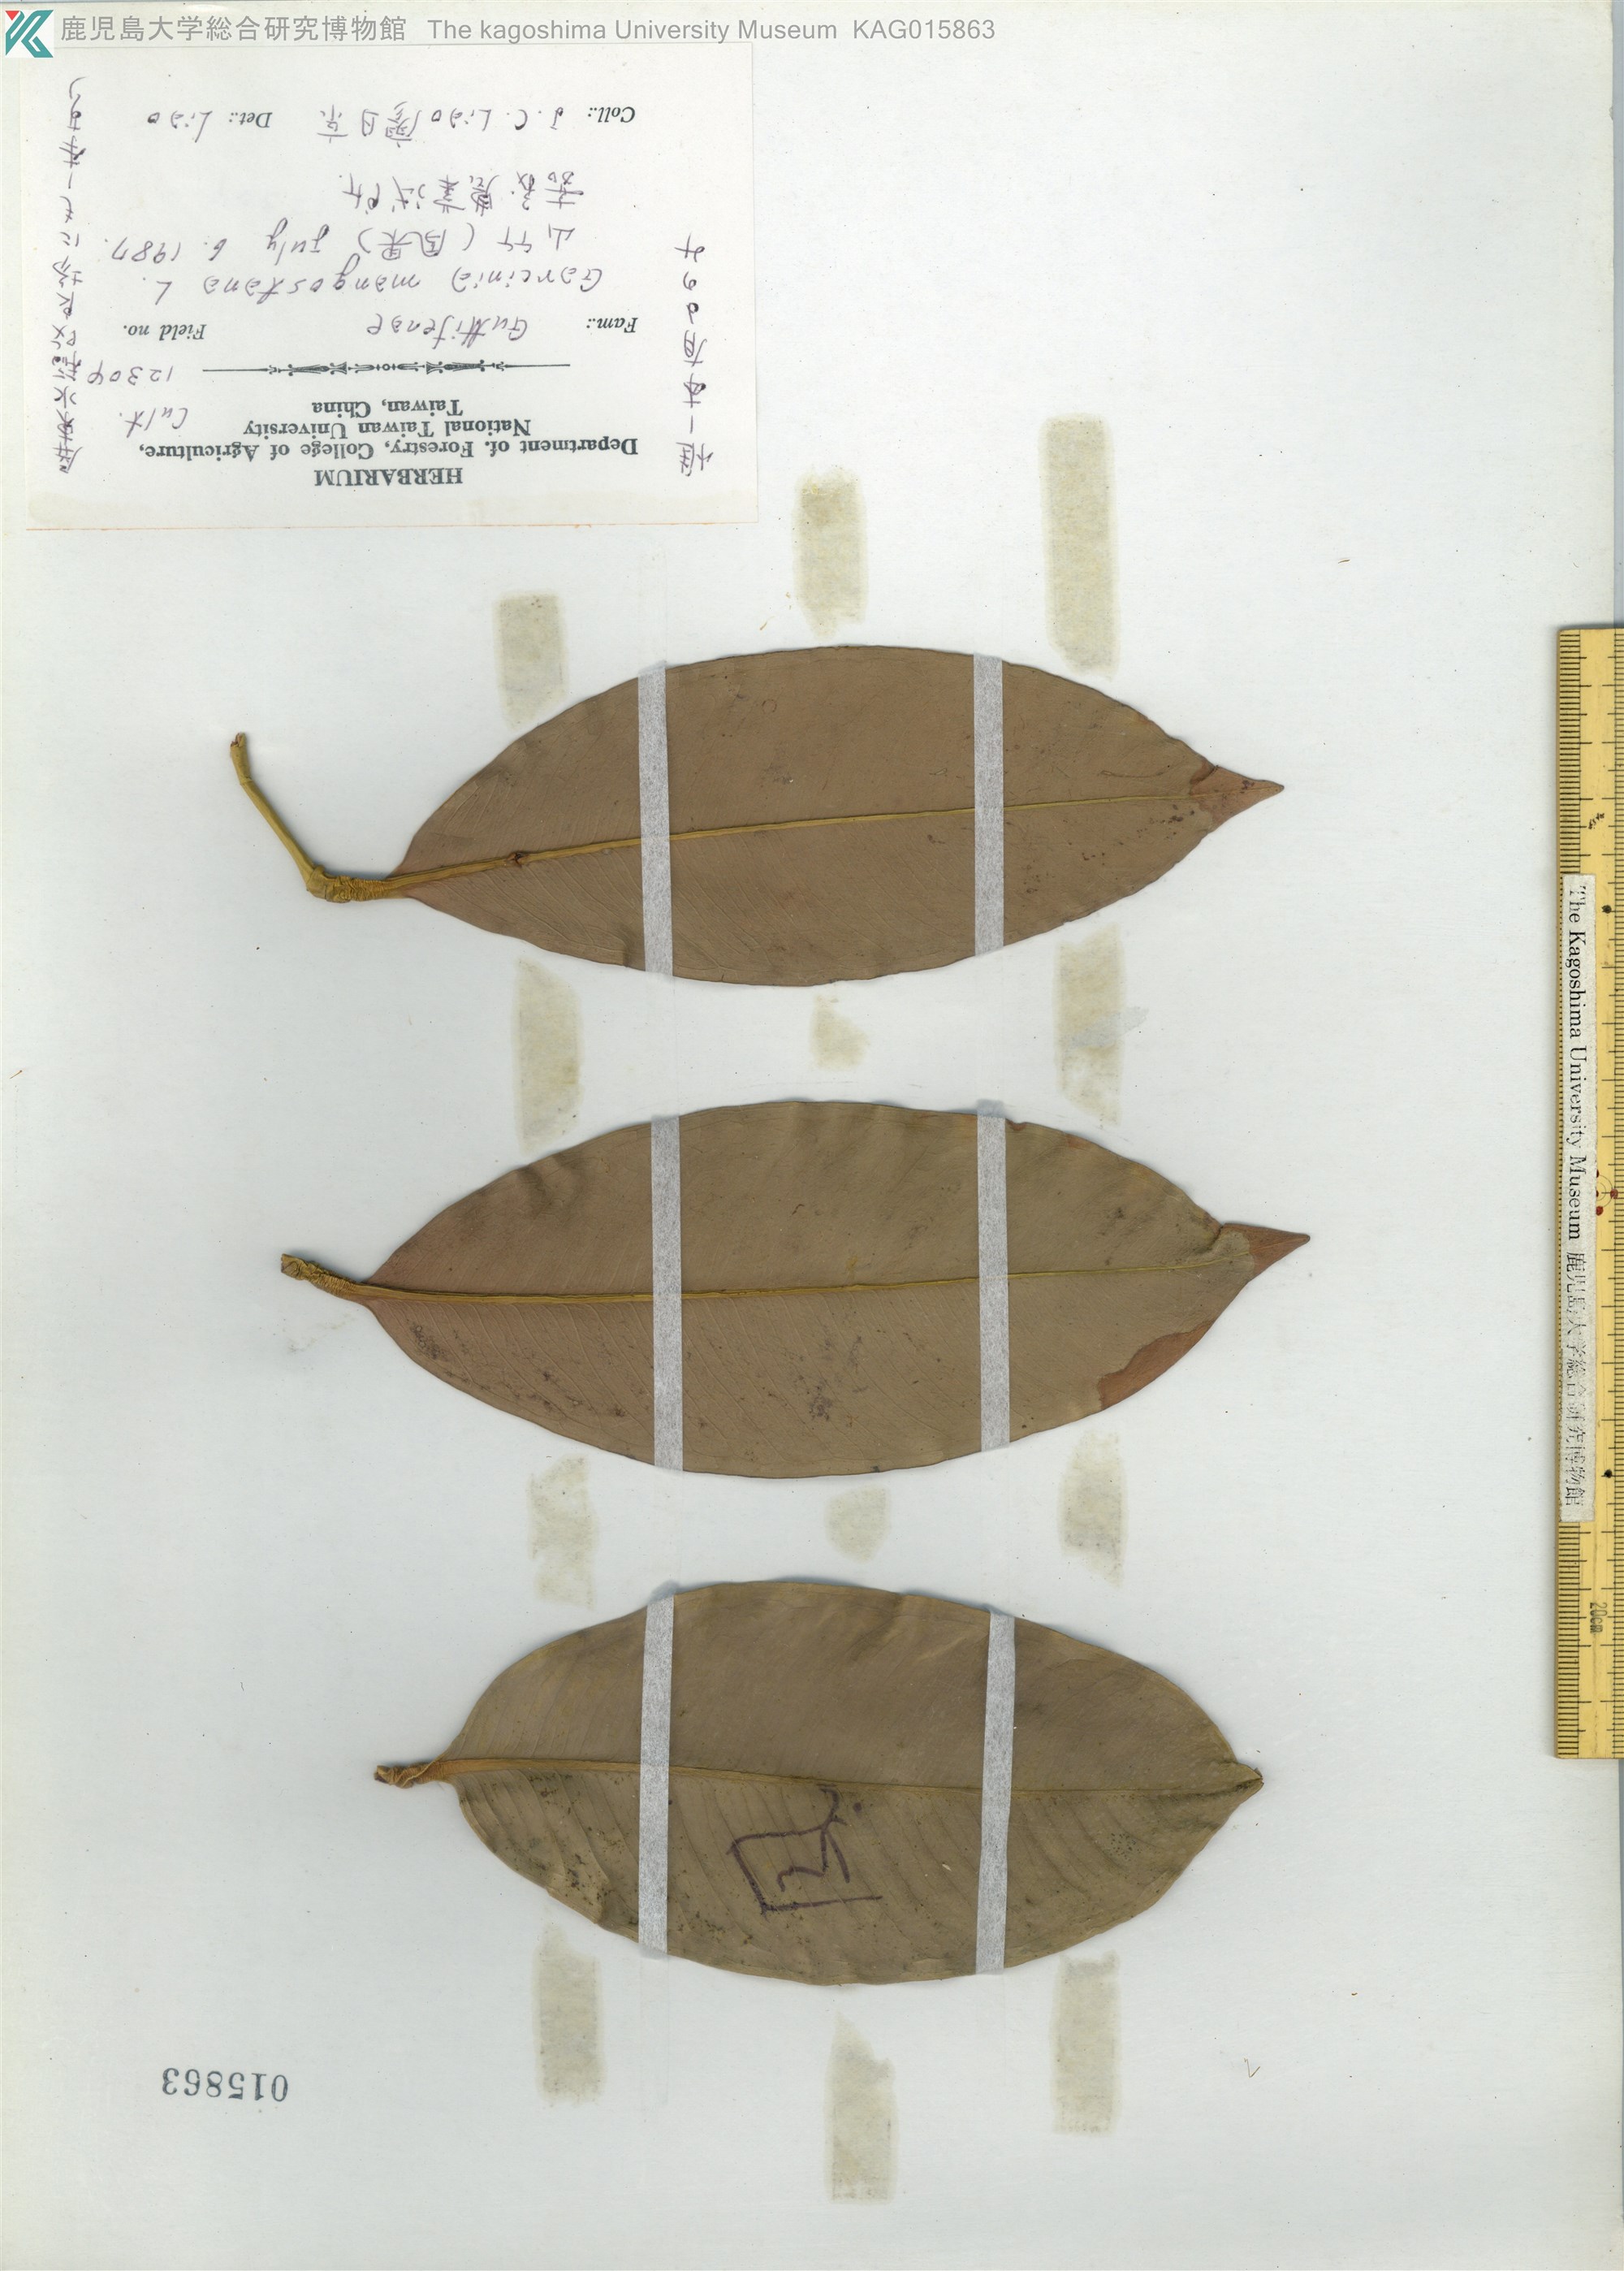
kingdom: Plantae
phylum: Tracheophyta
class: Magnoliopsida
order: Malpighiales
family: Clusiaceae
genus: Garcinia
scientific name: Garcinia mangostana
